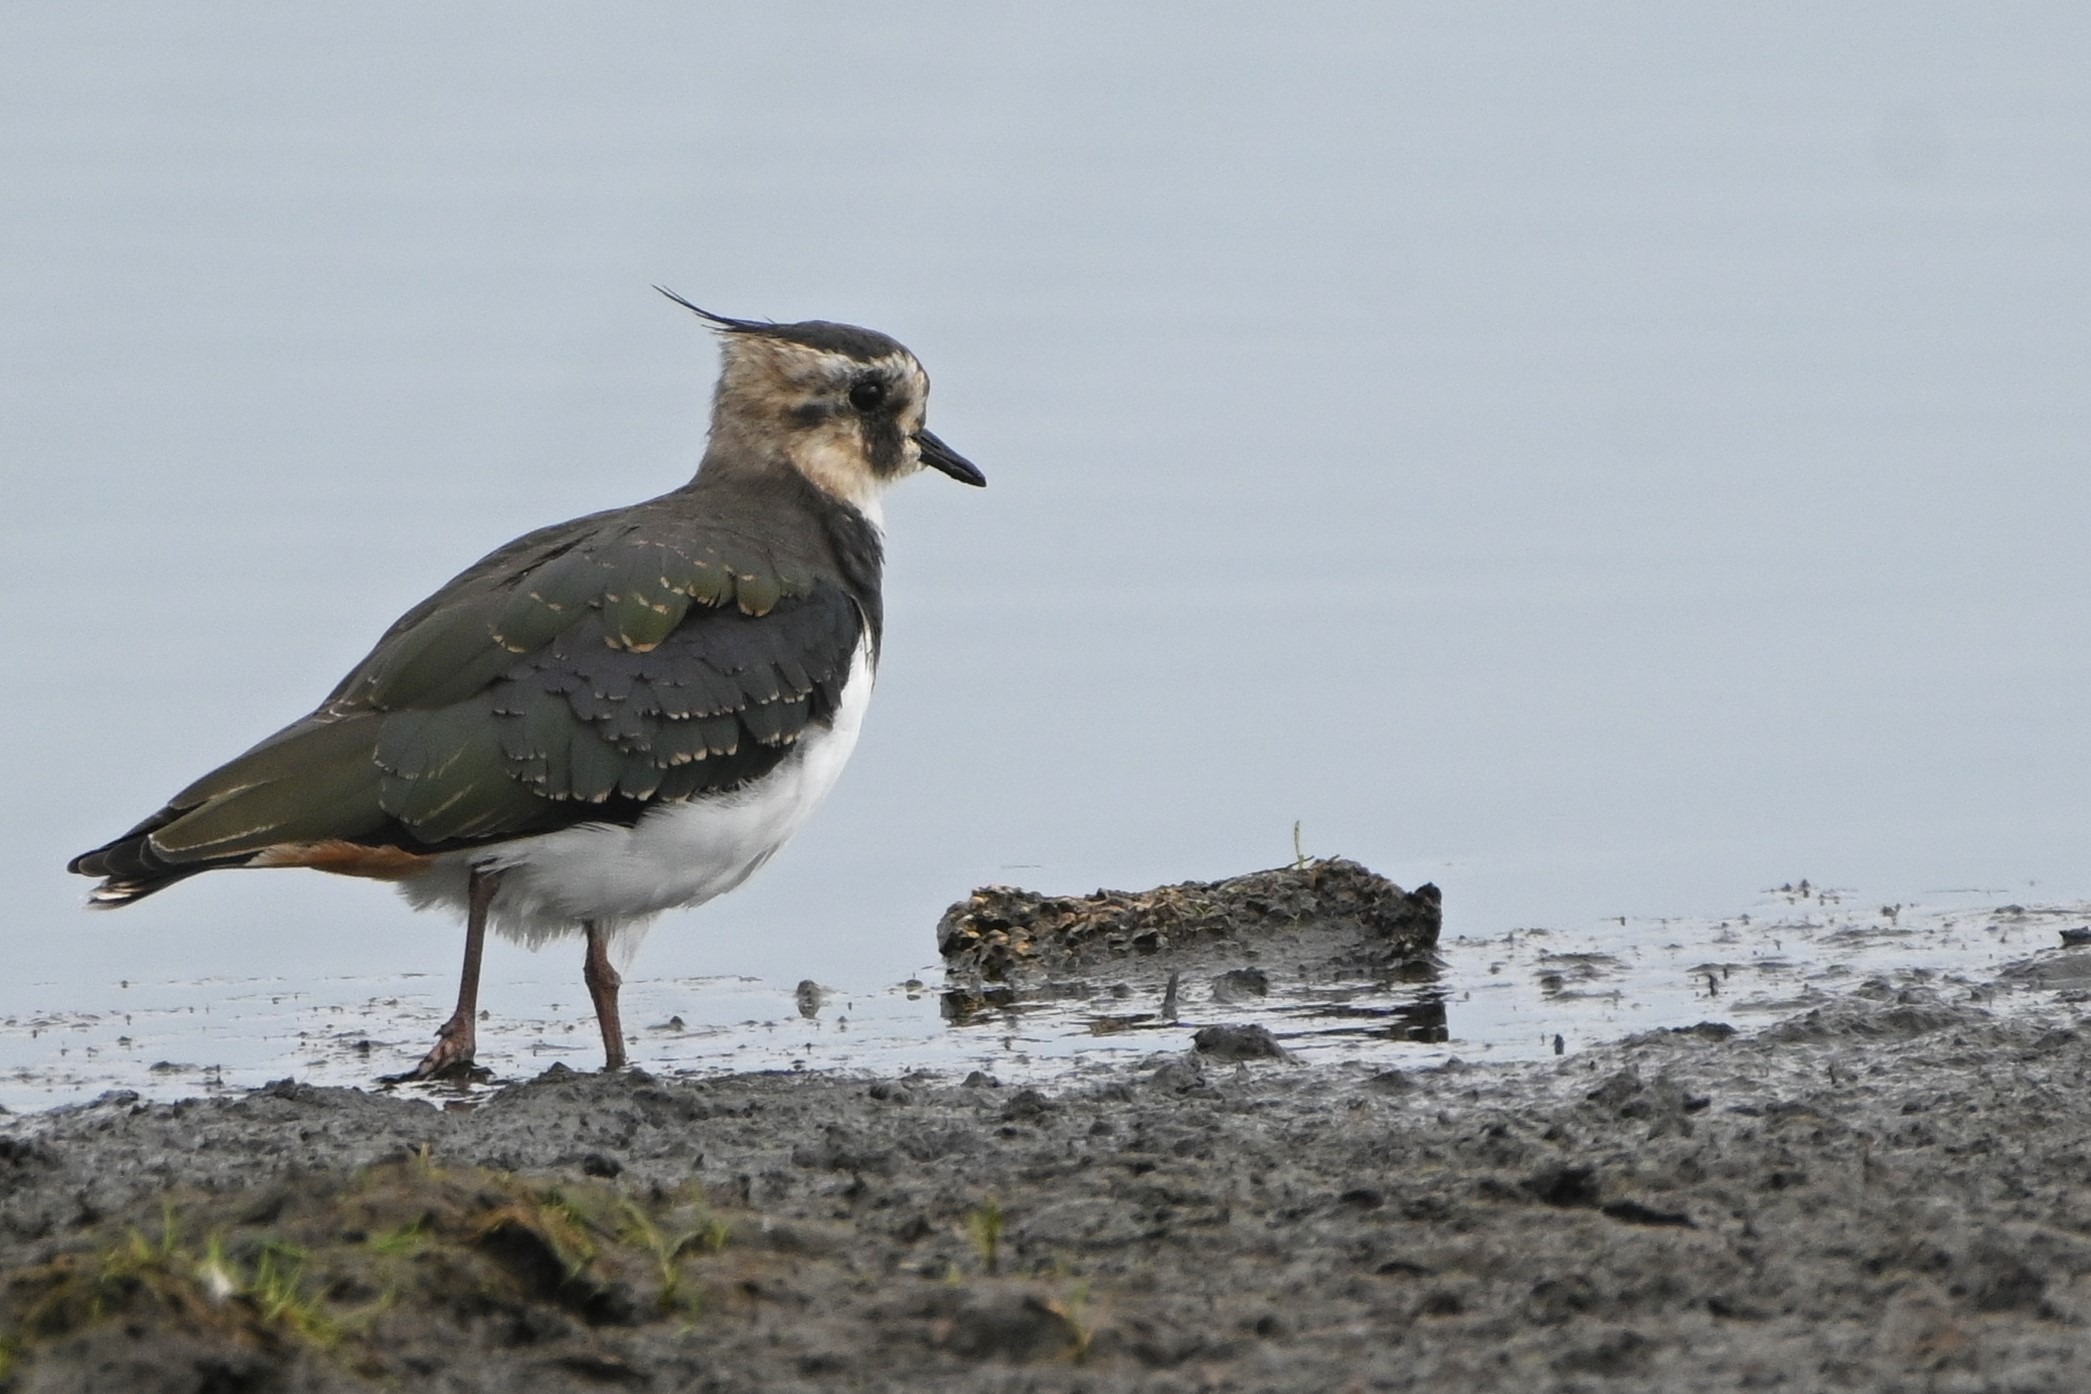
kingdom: Animalia
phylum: Chordata
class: Aves
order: Charadriiformes
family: Charadriidae
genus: Vanellus
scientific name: Vanellus vanellus
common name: Vibe
